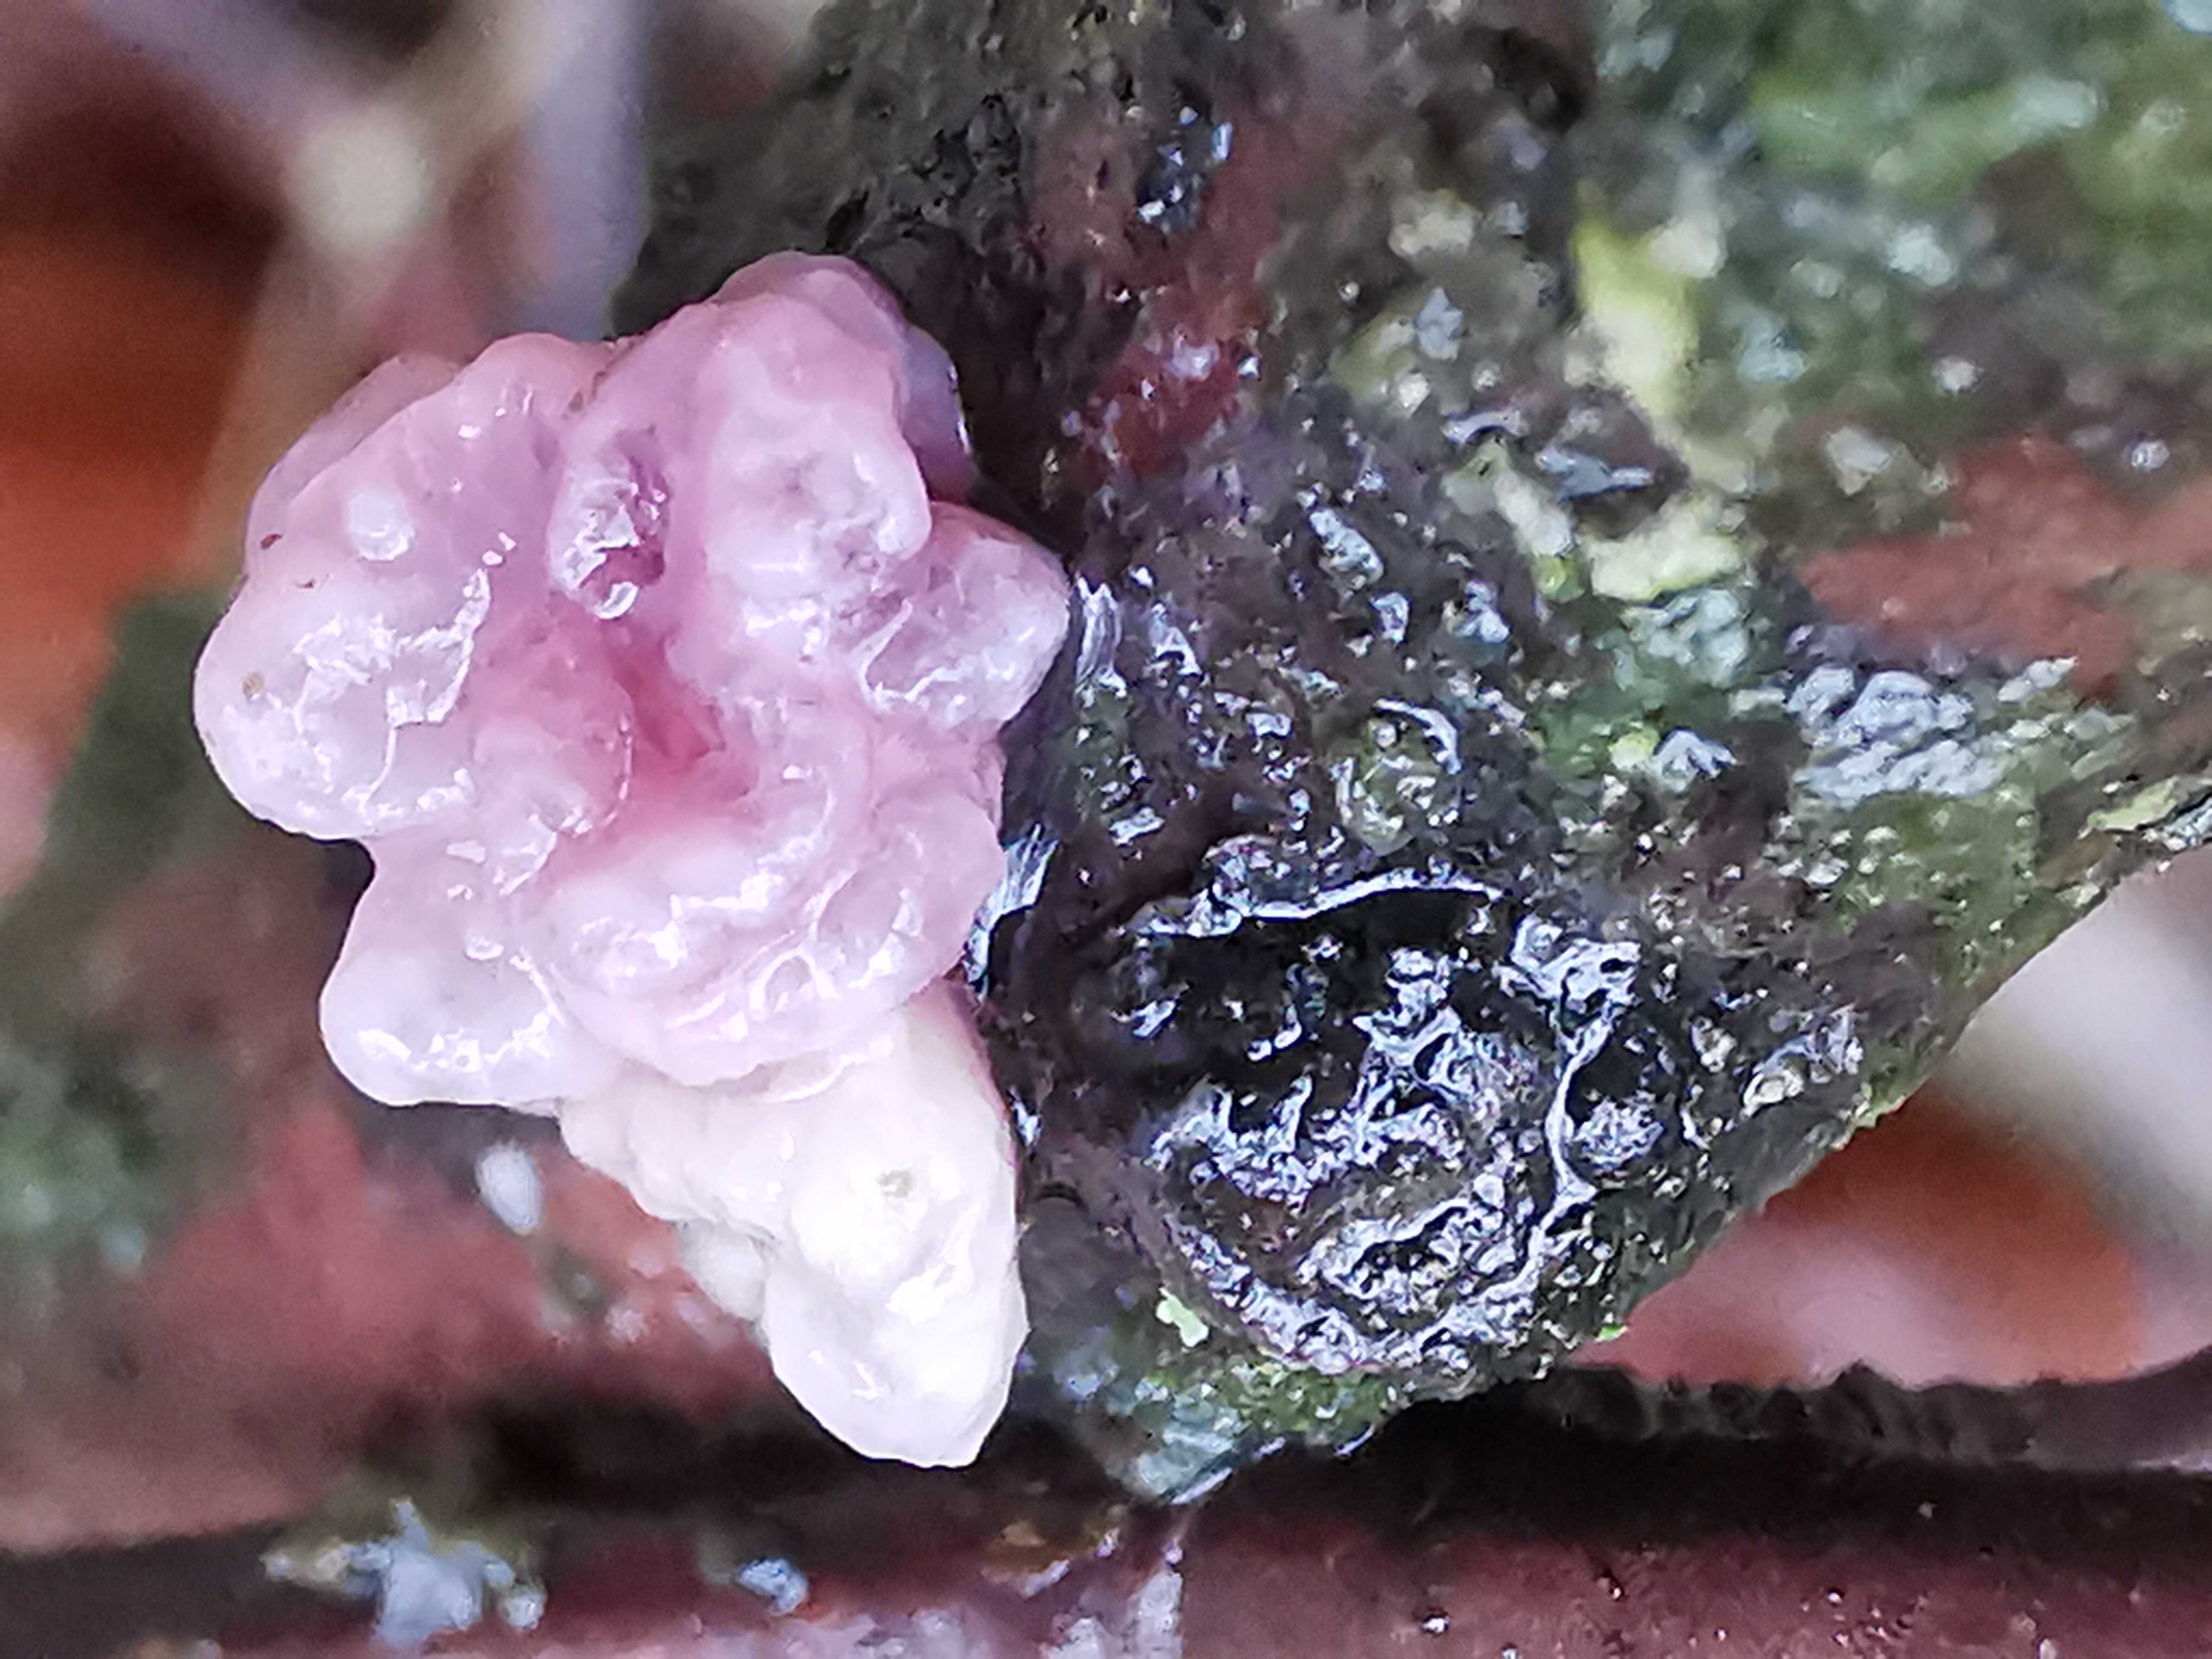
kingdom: Fungi
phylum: Ascomycota
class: Leotiomycetes
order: Helotiales
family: Gelatinodiscaceae
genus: Ascocoryne
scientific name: Ascocoryne sarcoides
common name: rødlilla sejskive
